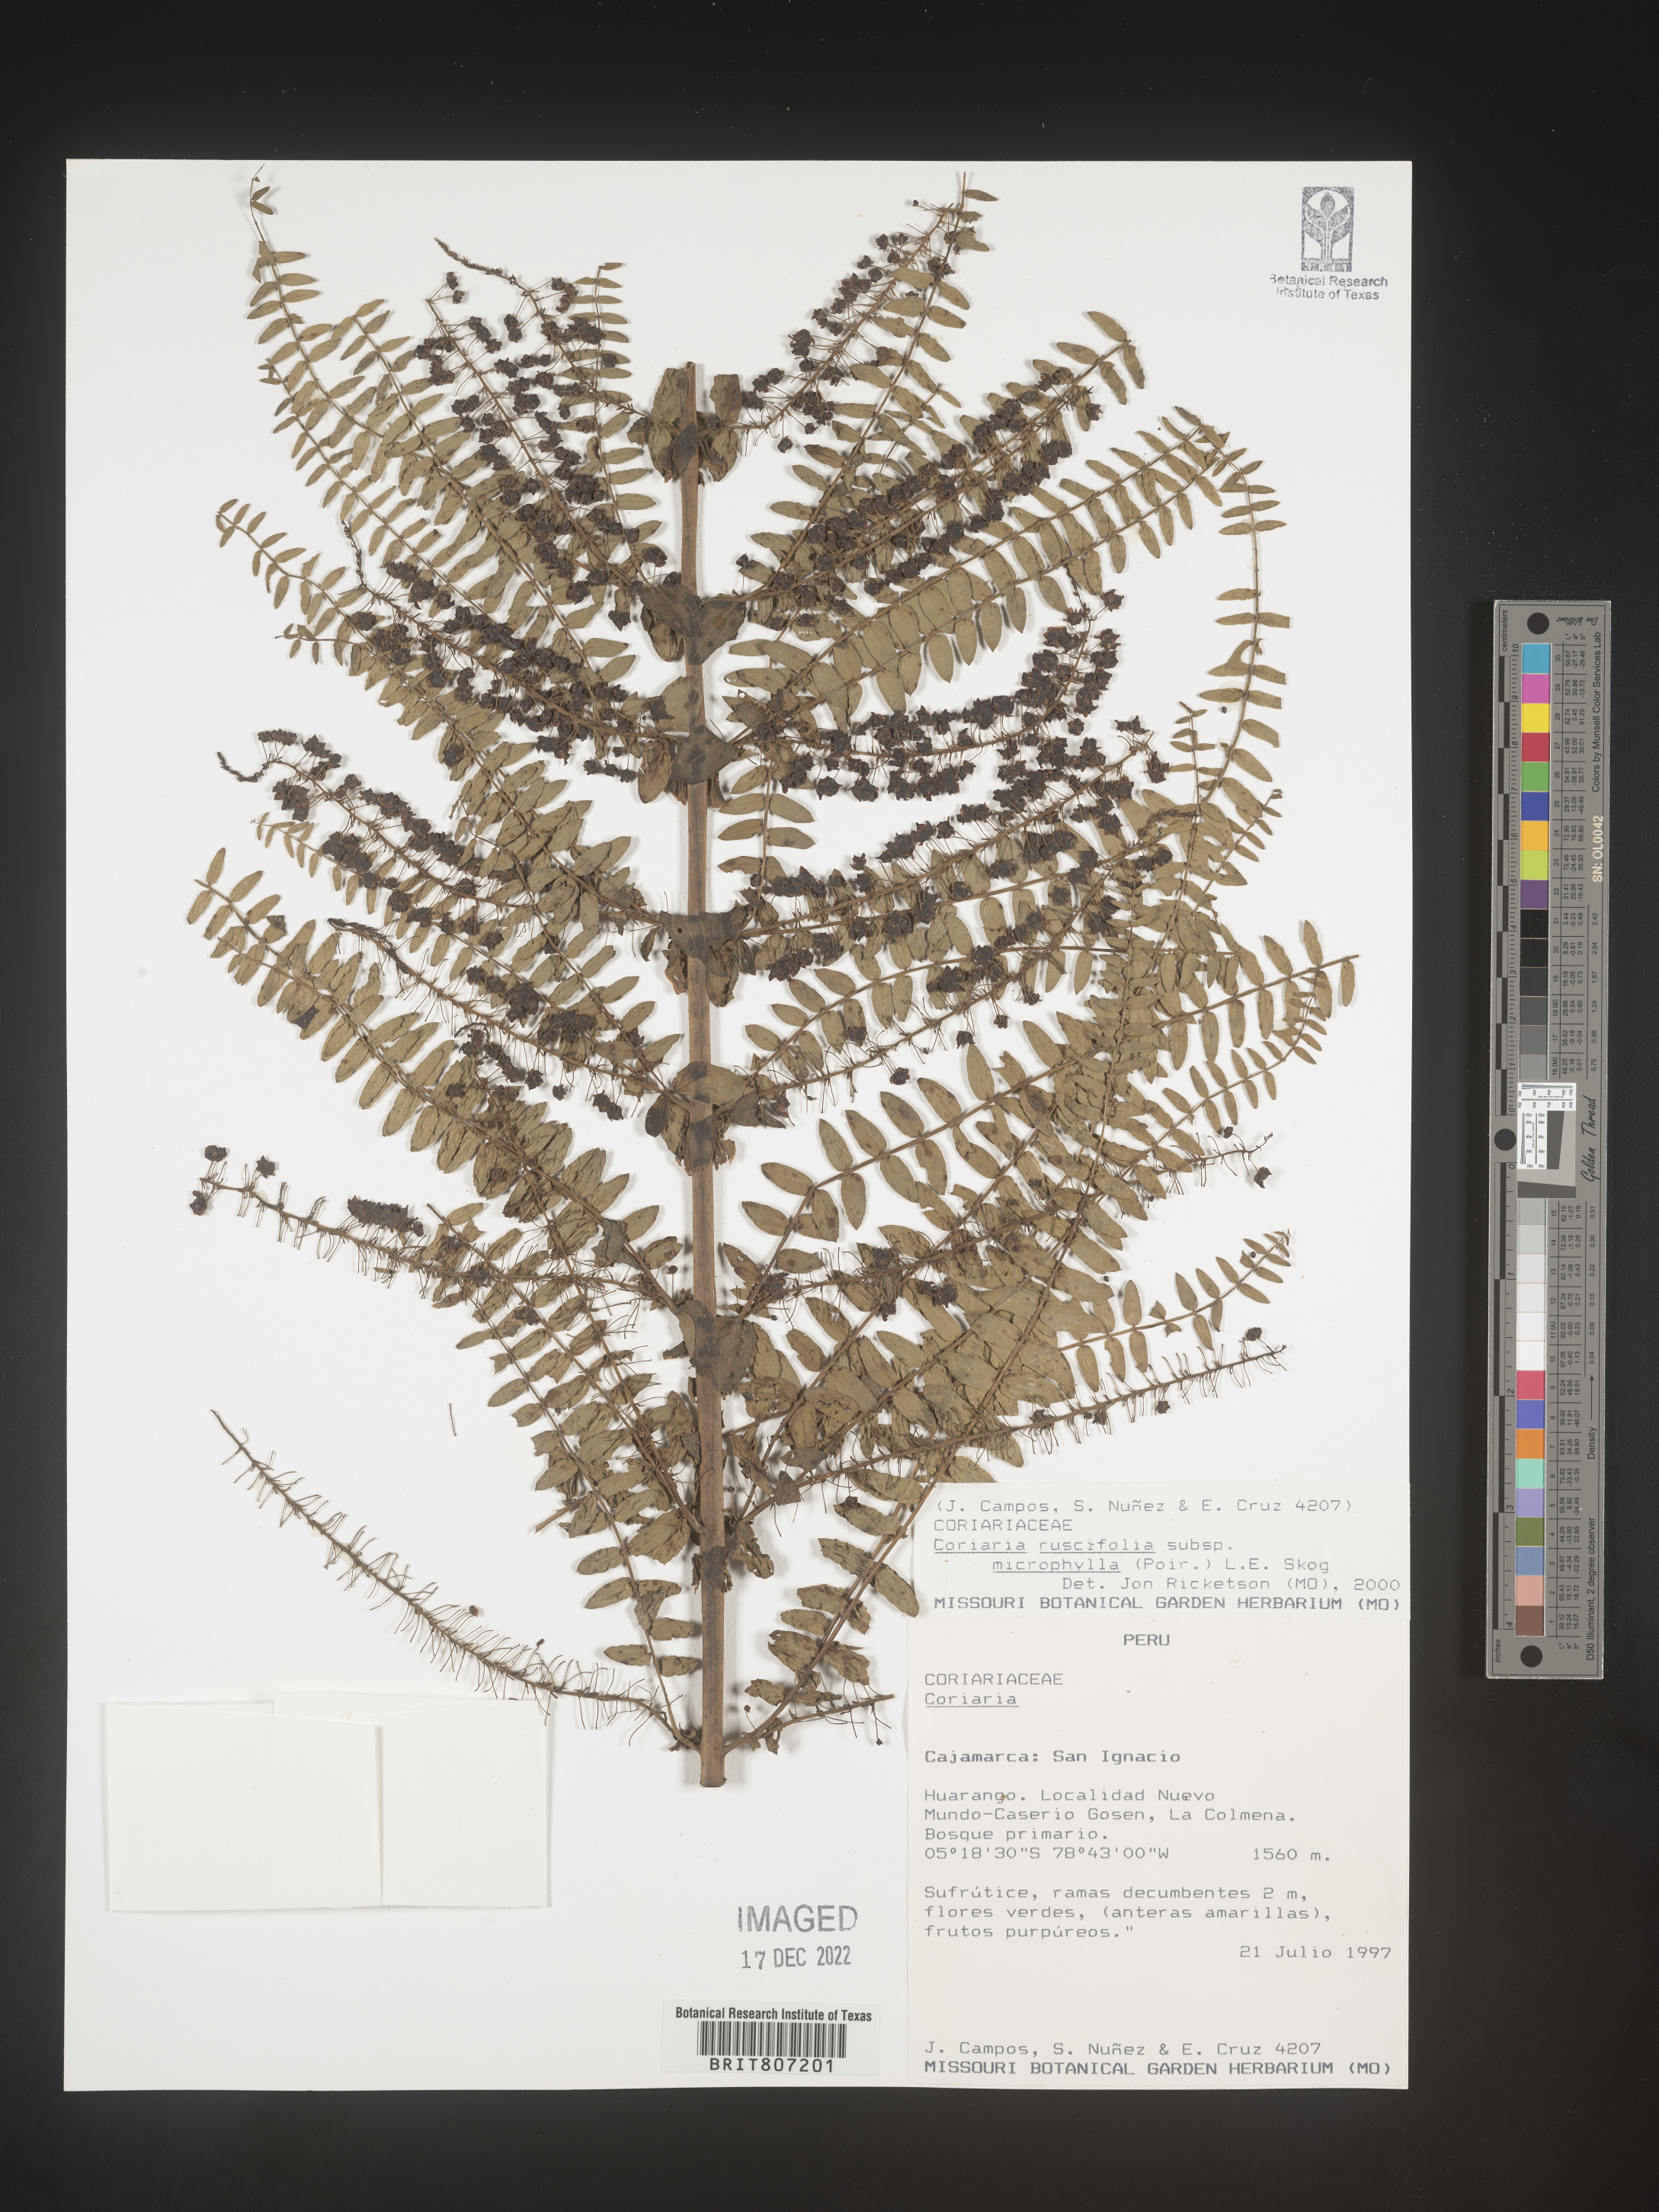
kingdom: Plantae
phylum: Tracheophyta
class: Magnoliopsida
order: Cucurbitales
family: Coriariaceae
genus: Coriaria
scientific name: Coriaria
